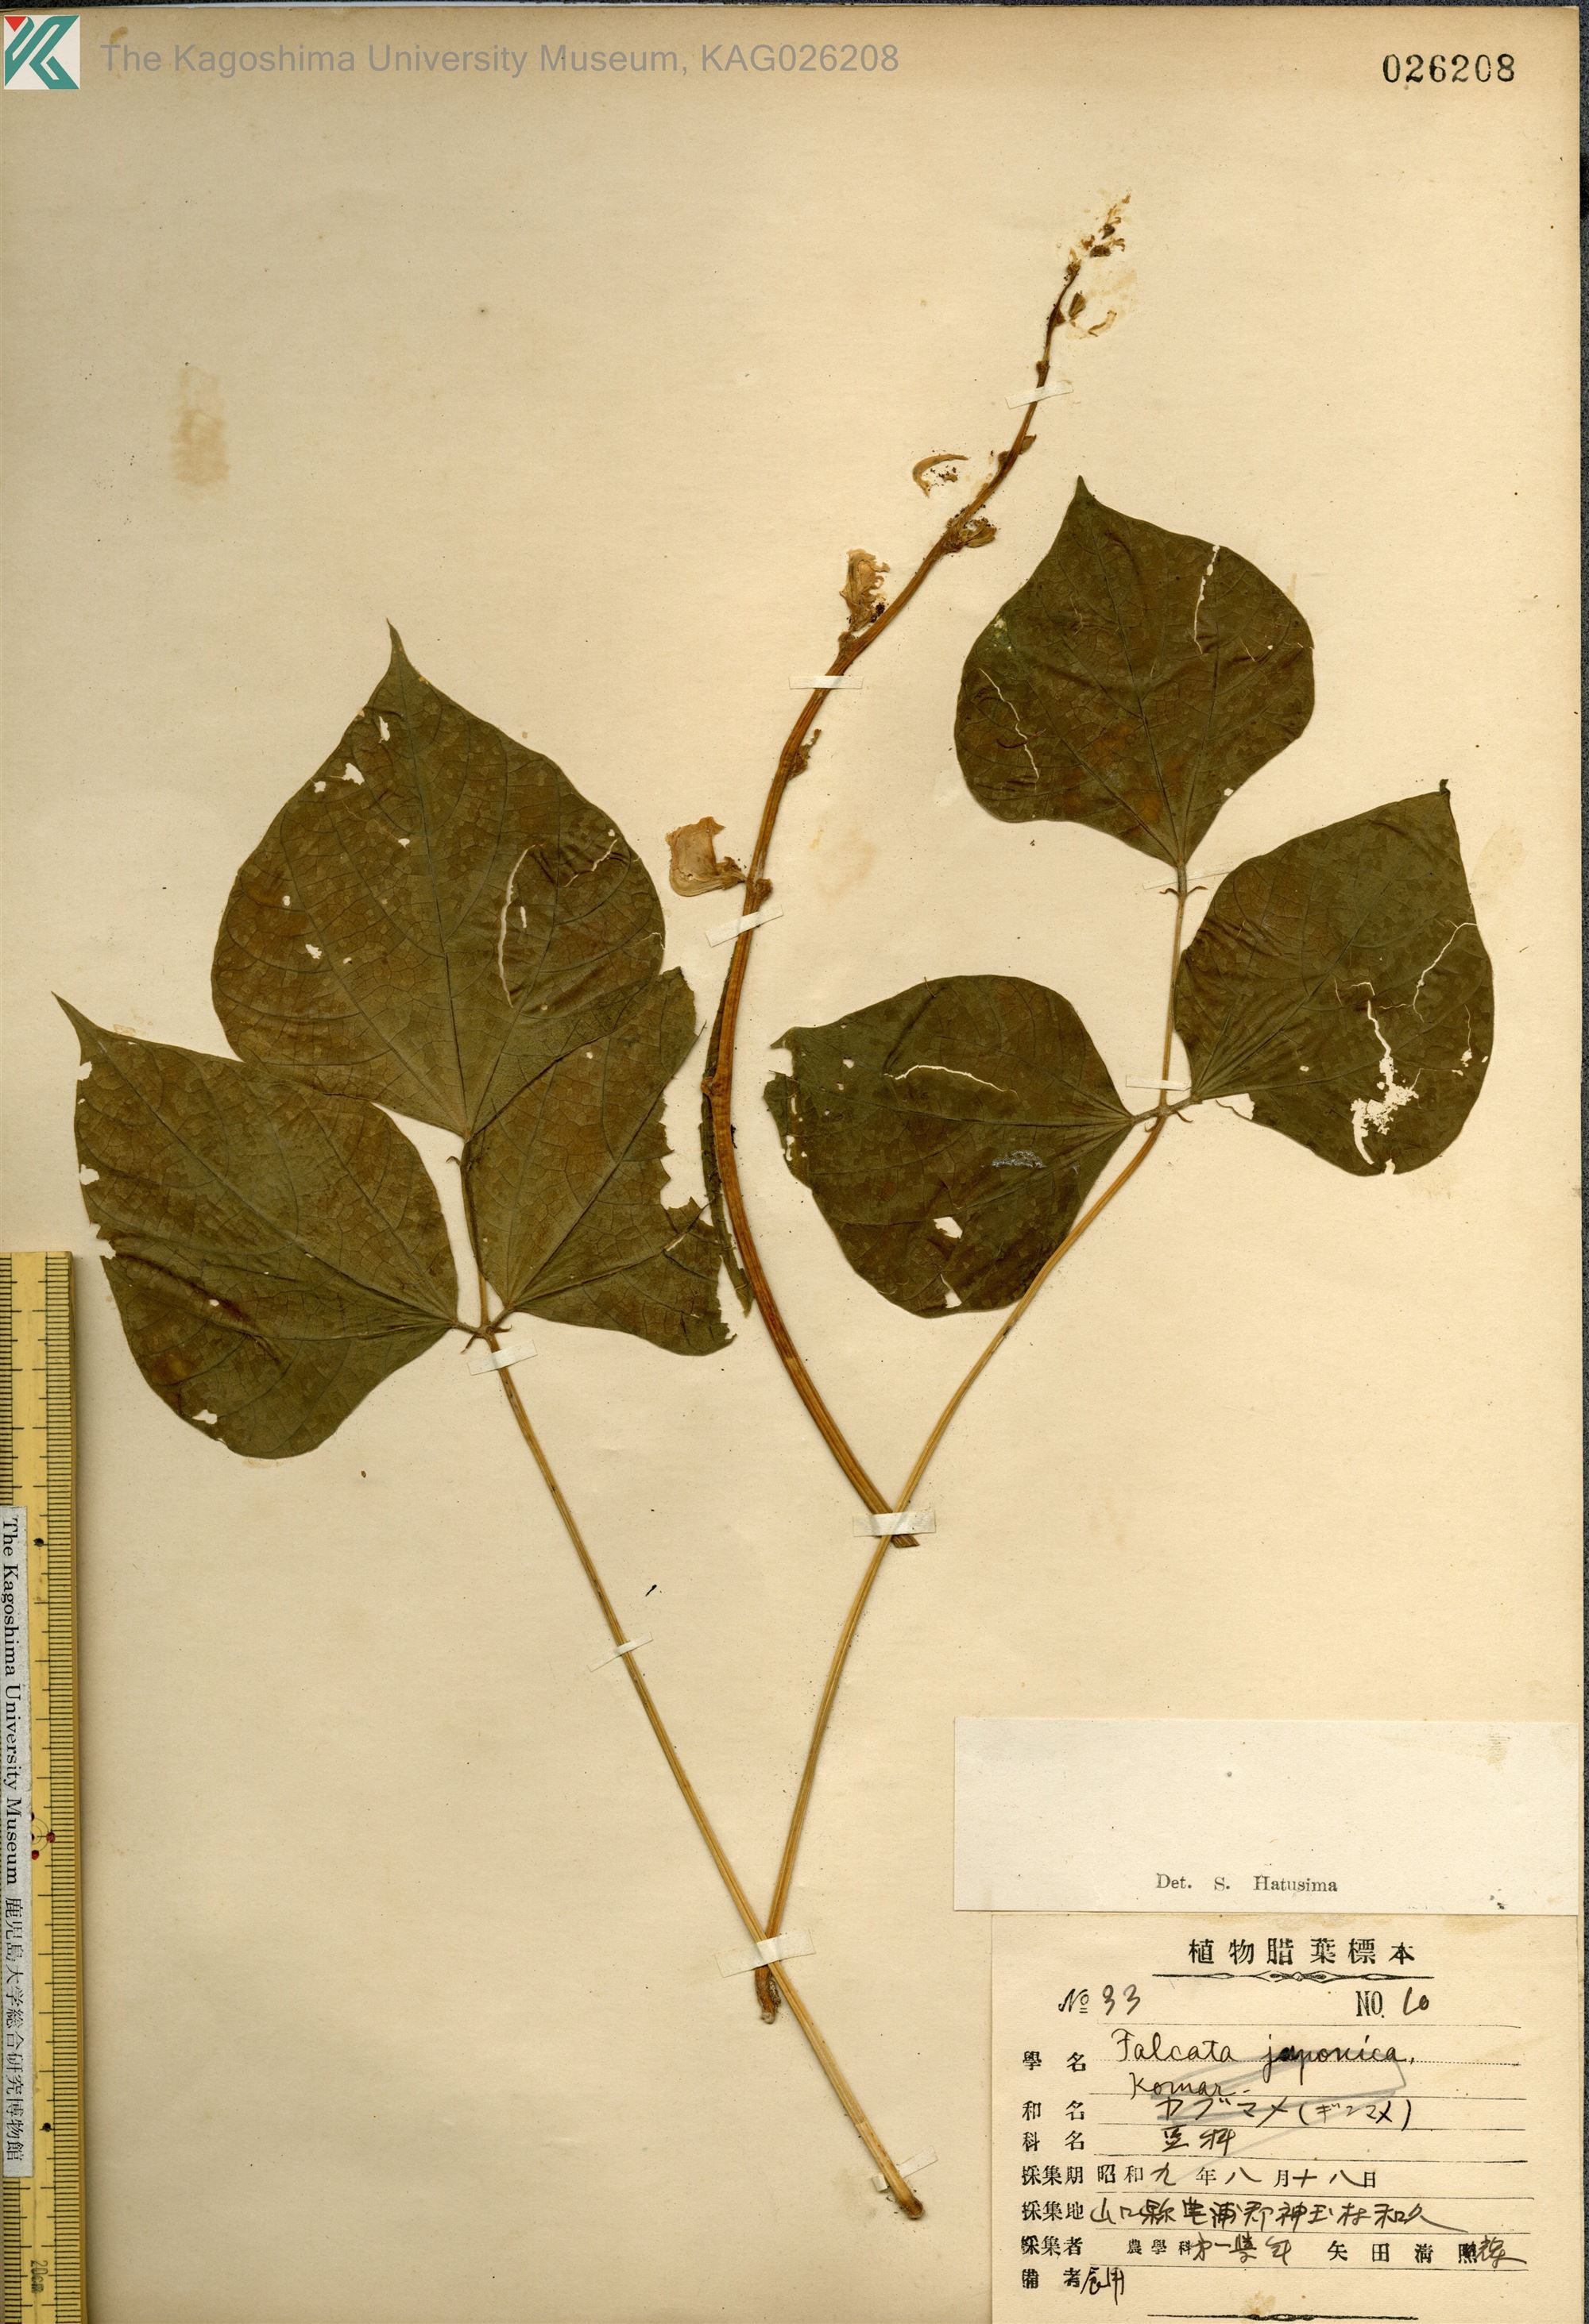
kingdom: Plantae
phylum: Tracheophyta
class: Magnoliopsida
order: Fabales
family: Fabaceae
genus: Lablab
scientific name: Lablab purpureus
